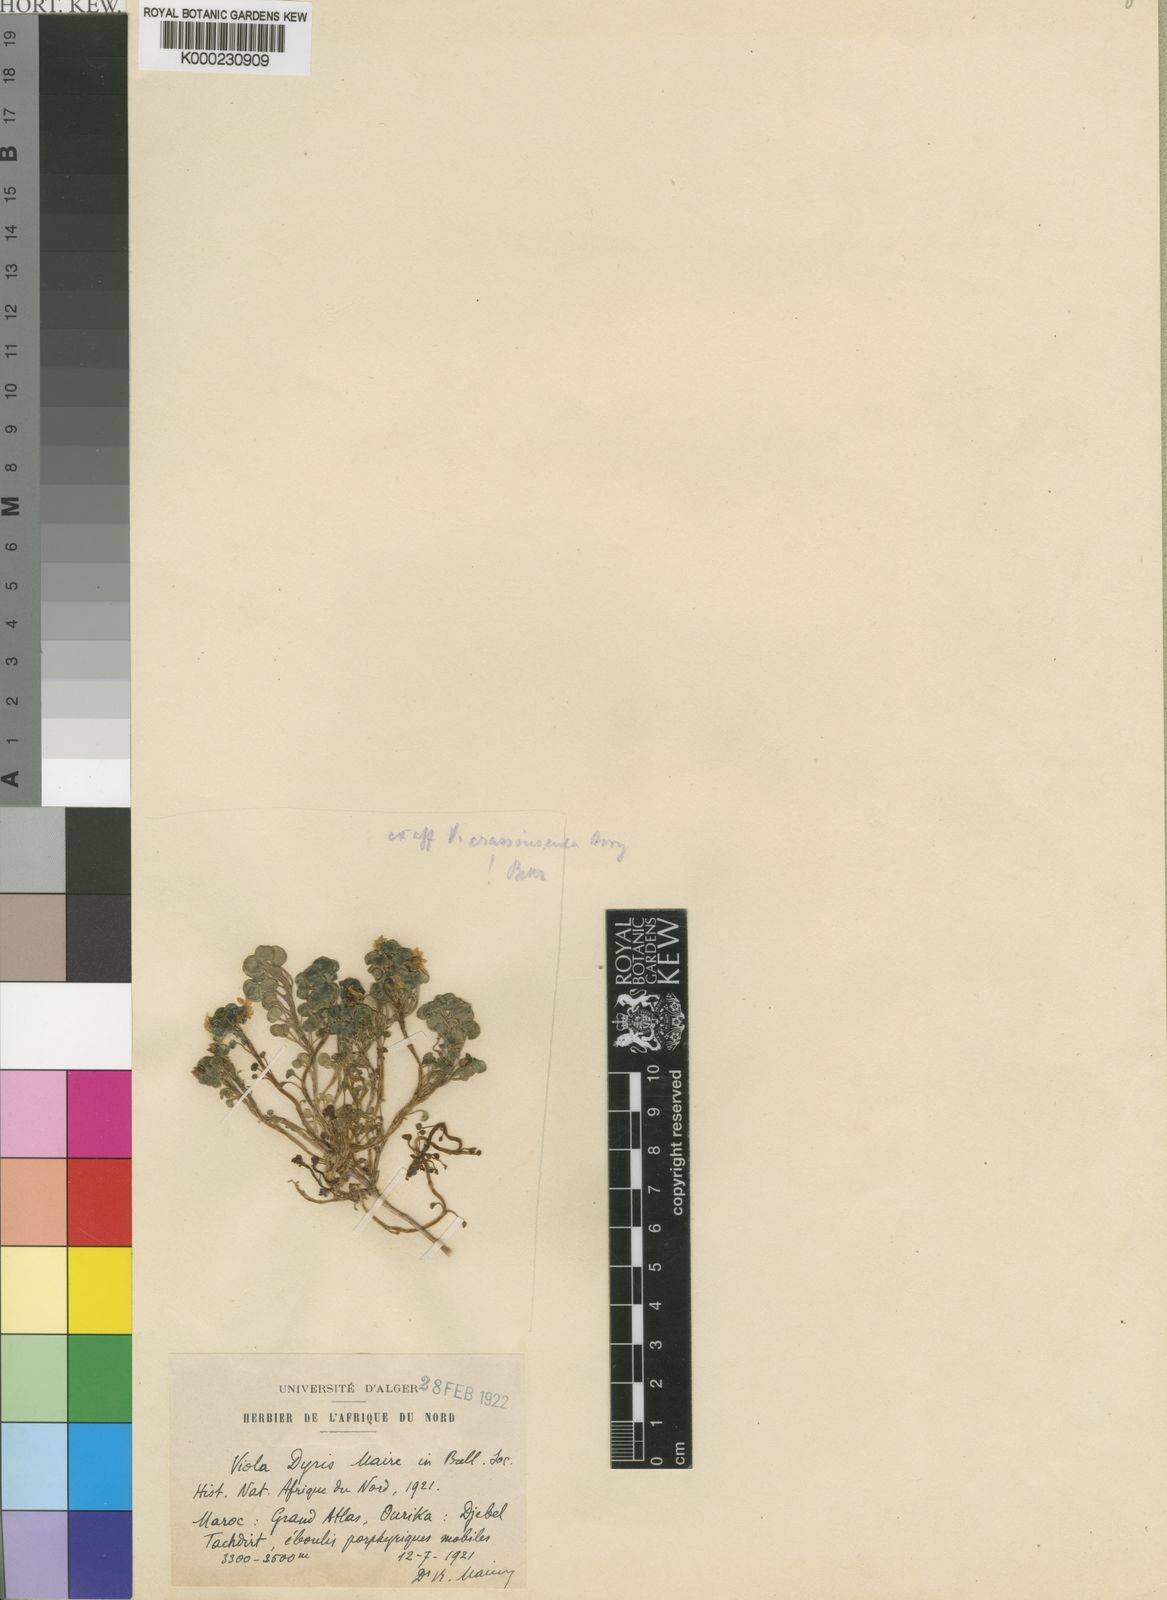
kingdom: Plantae
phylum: Tracheophyta
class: Magnoliopsida
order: Malpighiales
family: Violaceae
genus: Viola
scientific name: Viola dyris
